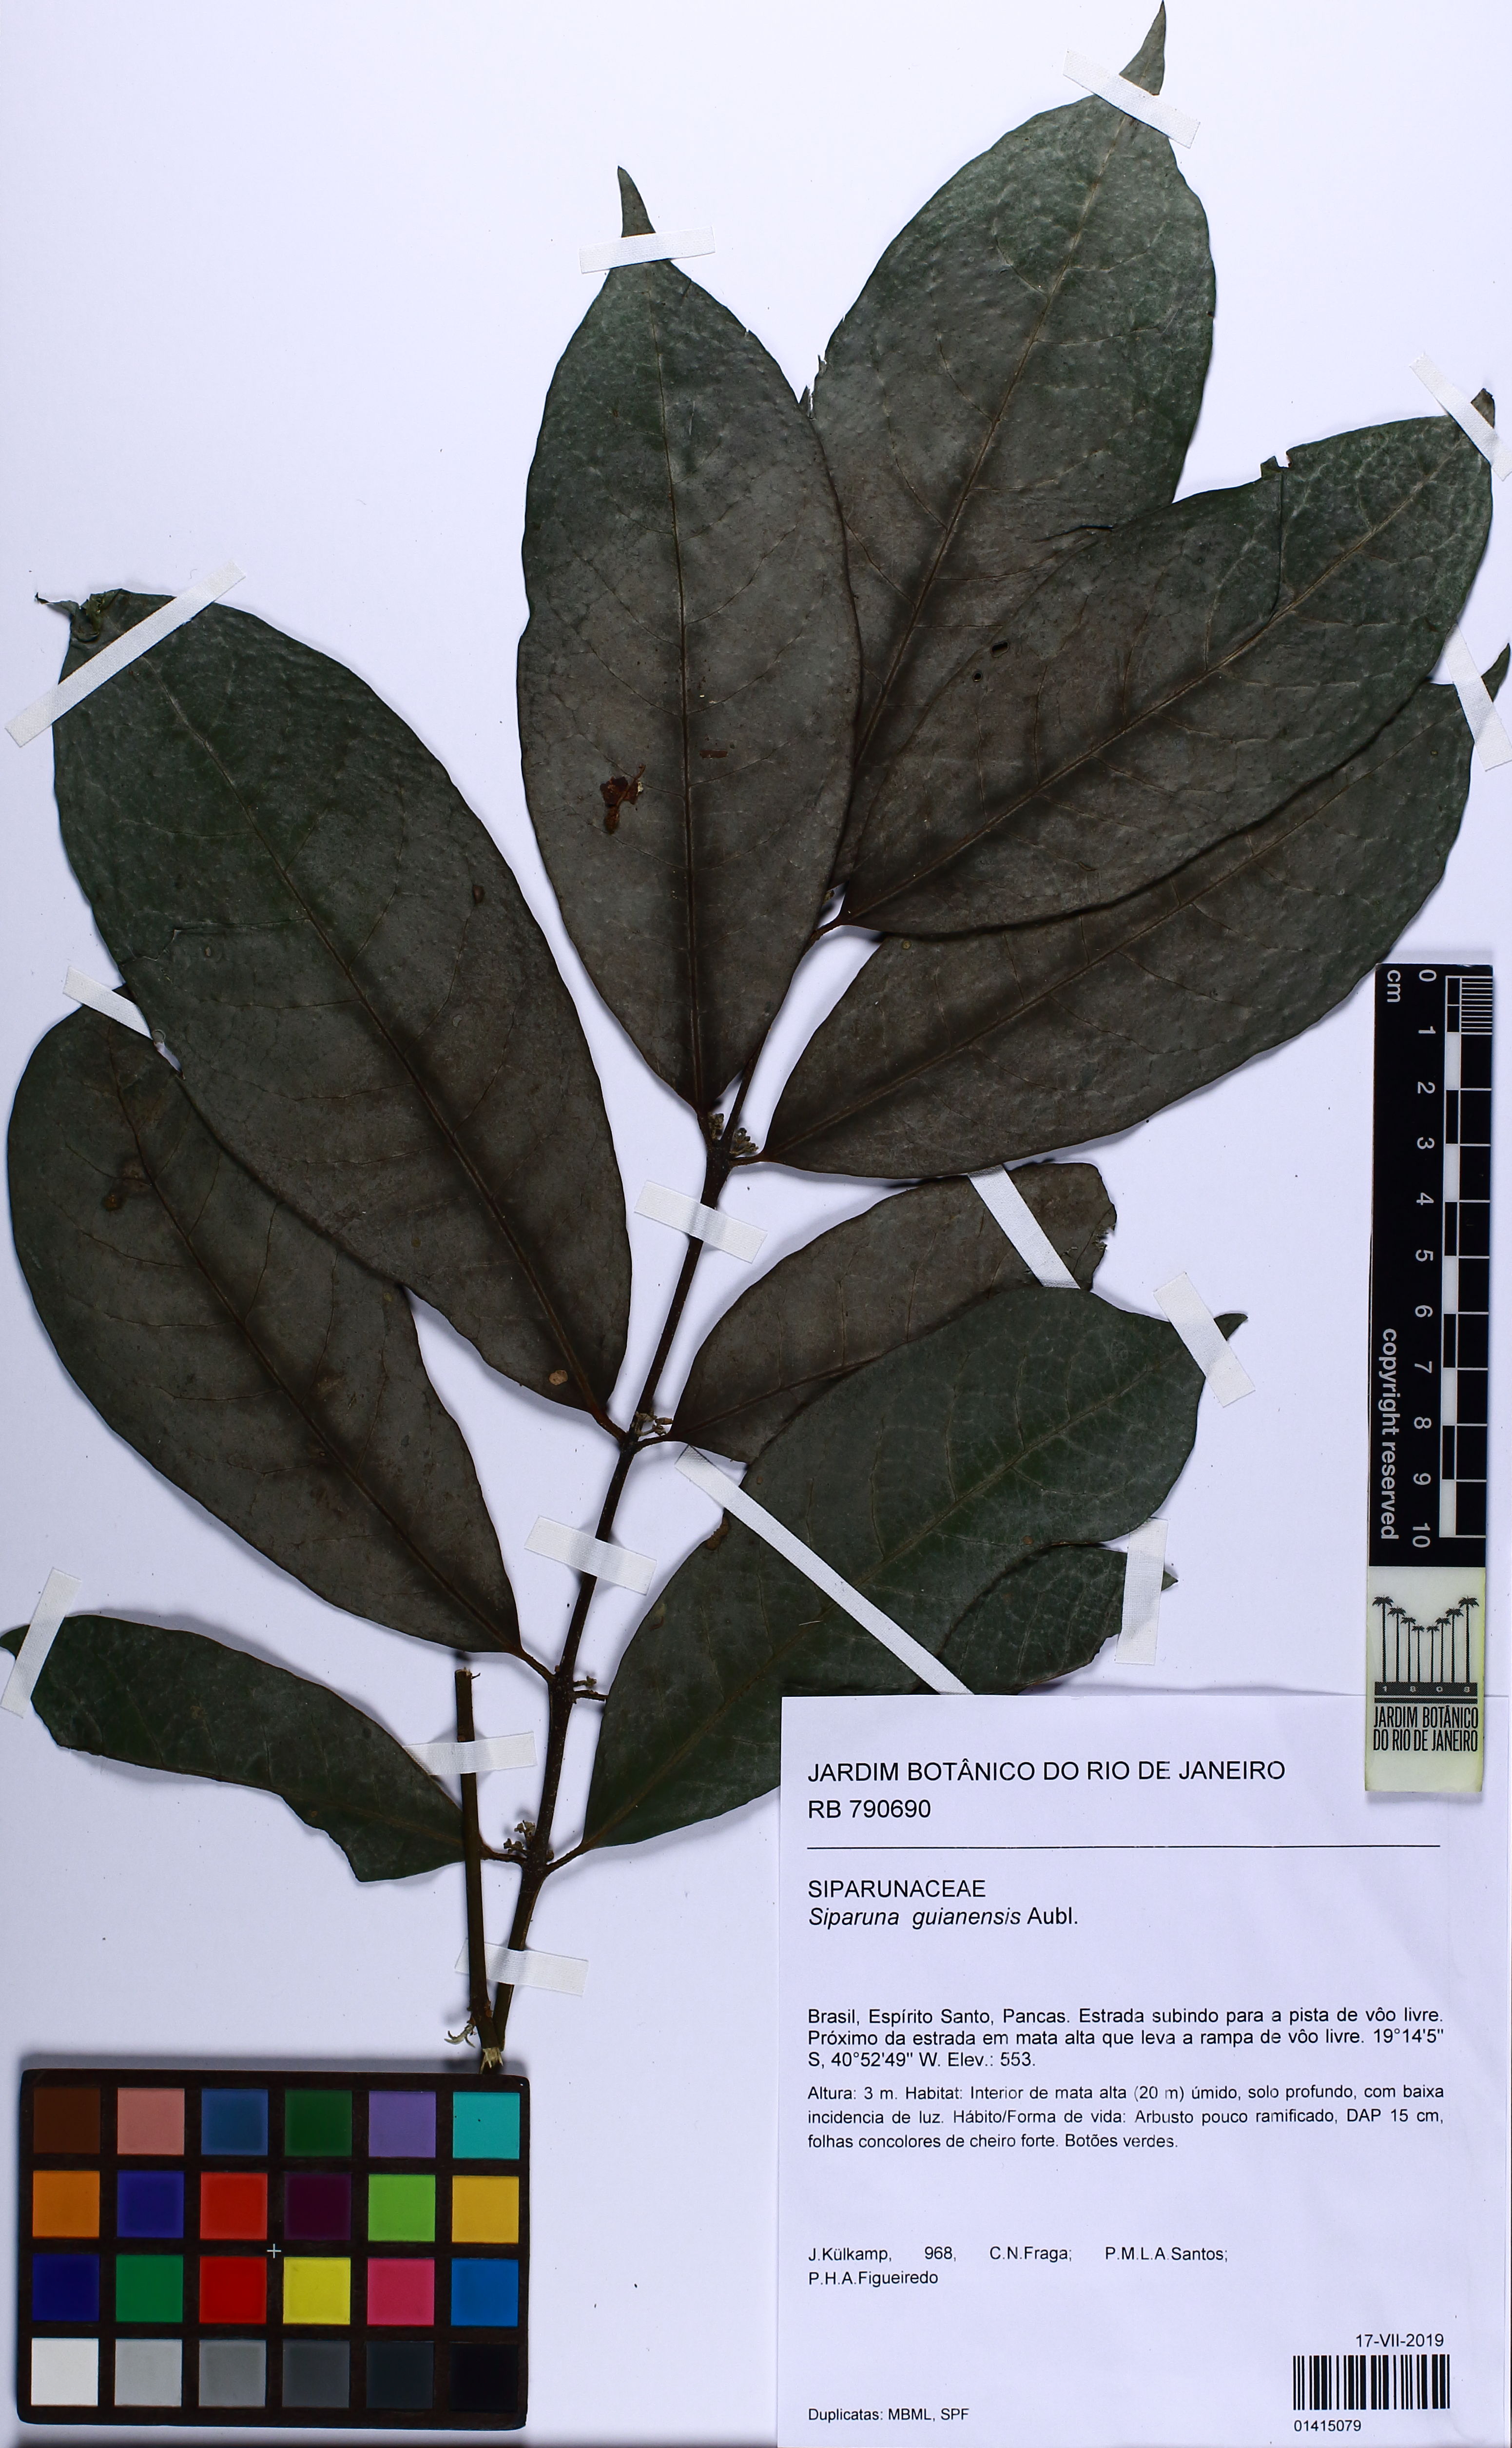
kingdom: Plantae
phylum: Tracheophyta
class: Magnoliopsida
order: Laurales
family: Siparunaceae
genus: Siparuna
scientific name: Siparuna guianensis
